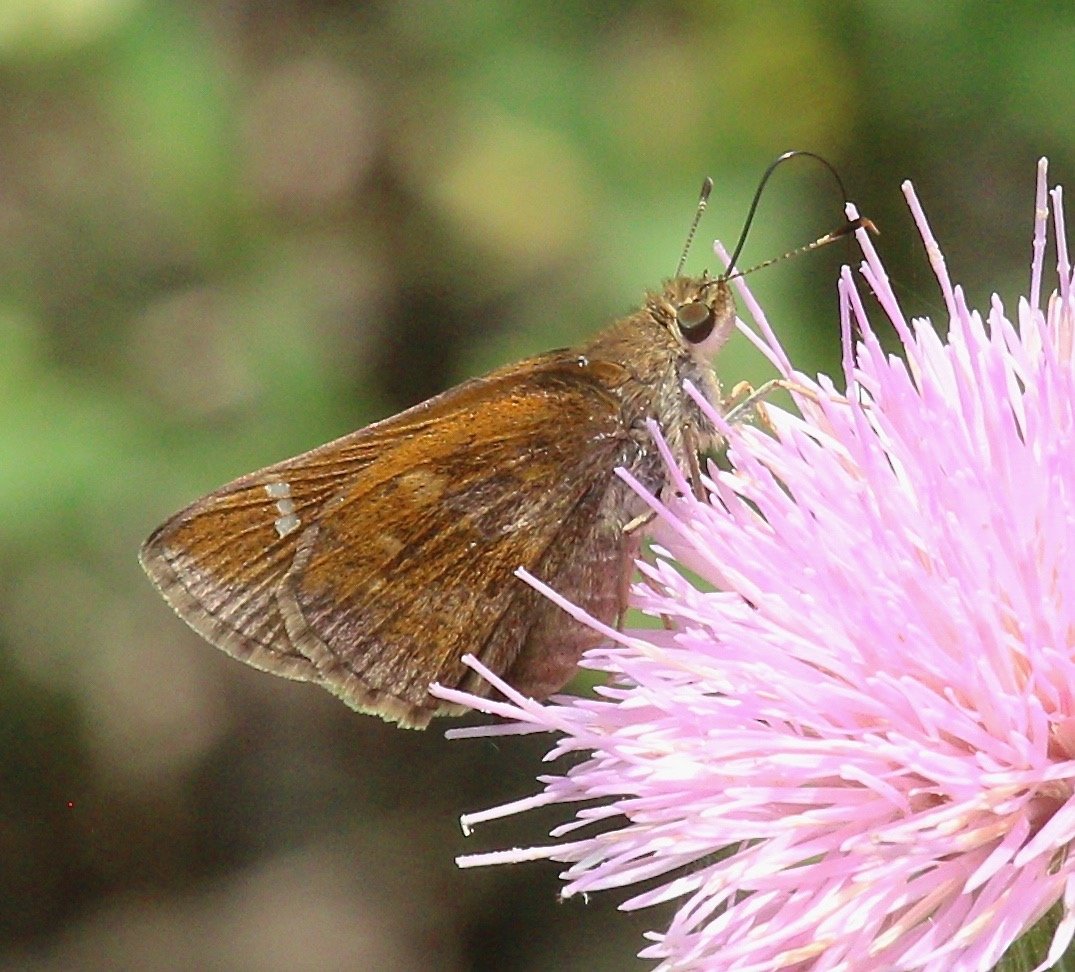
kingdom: Animalia
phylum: Arthropoda
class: Insecta
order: Lepidoptera
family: Hesperiidae
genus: Lerema
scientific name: Lerema accius
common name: Clouded Skipper
